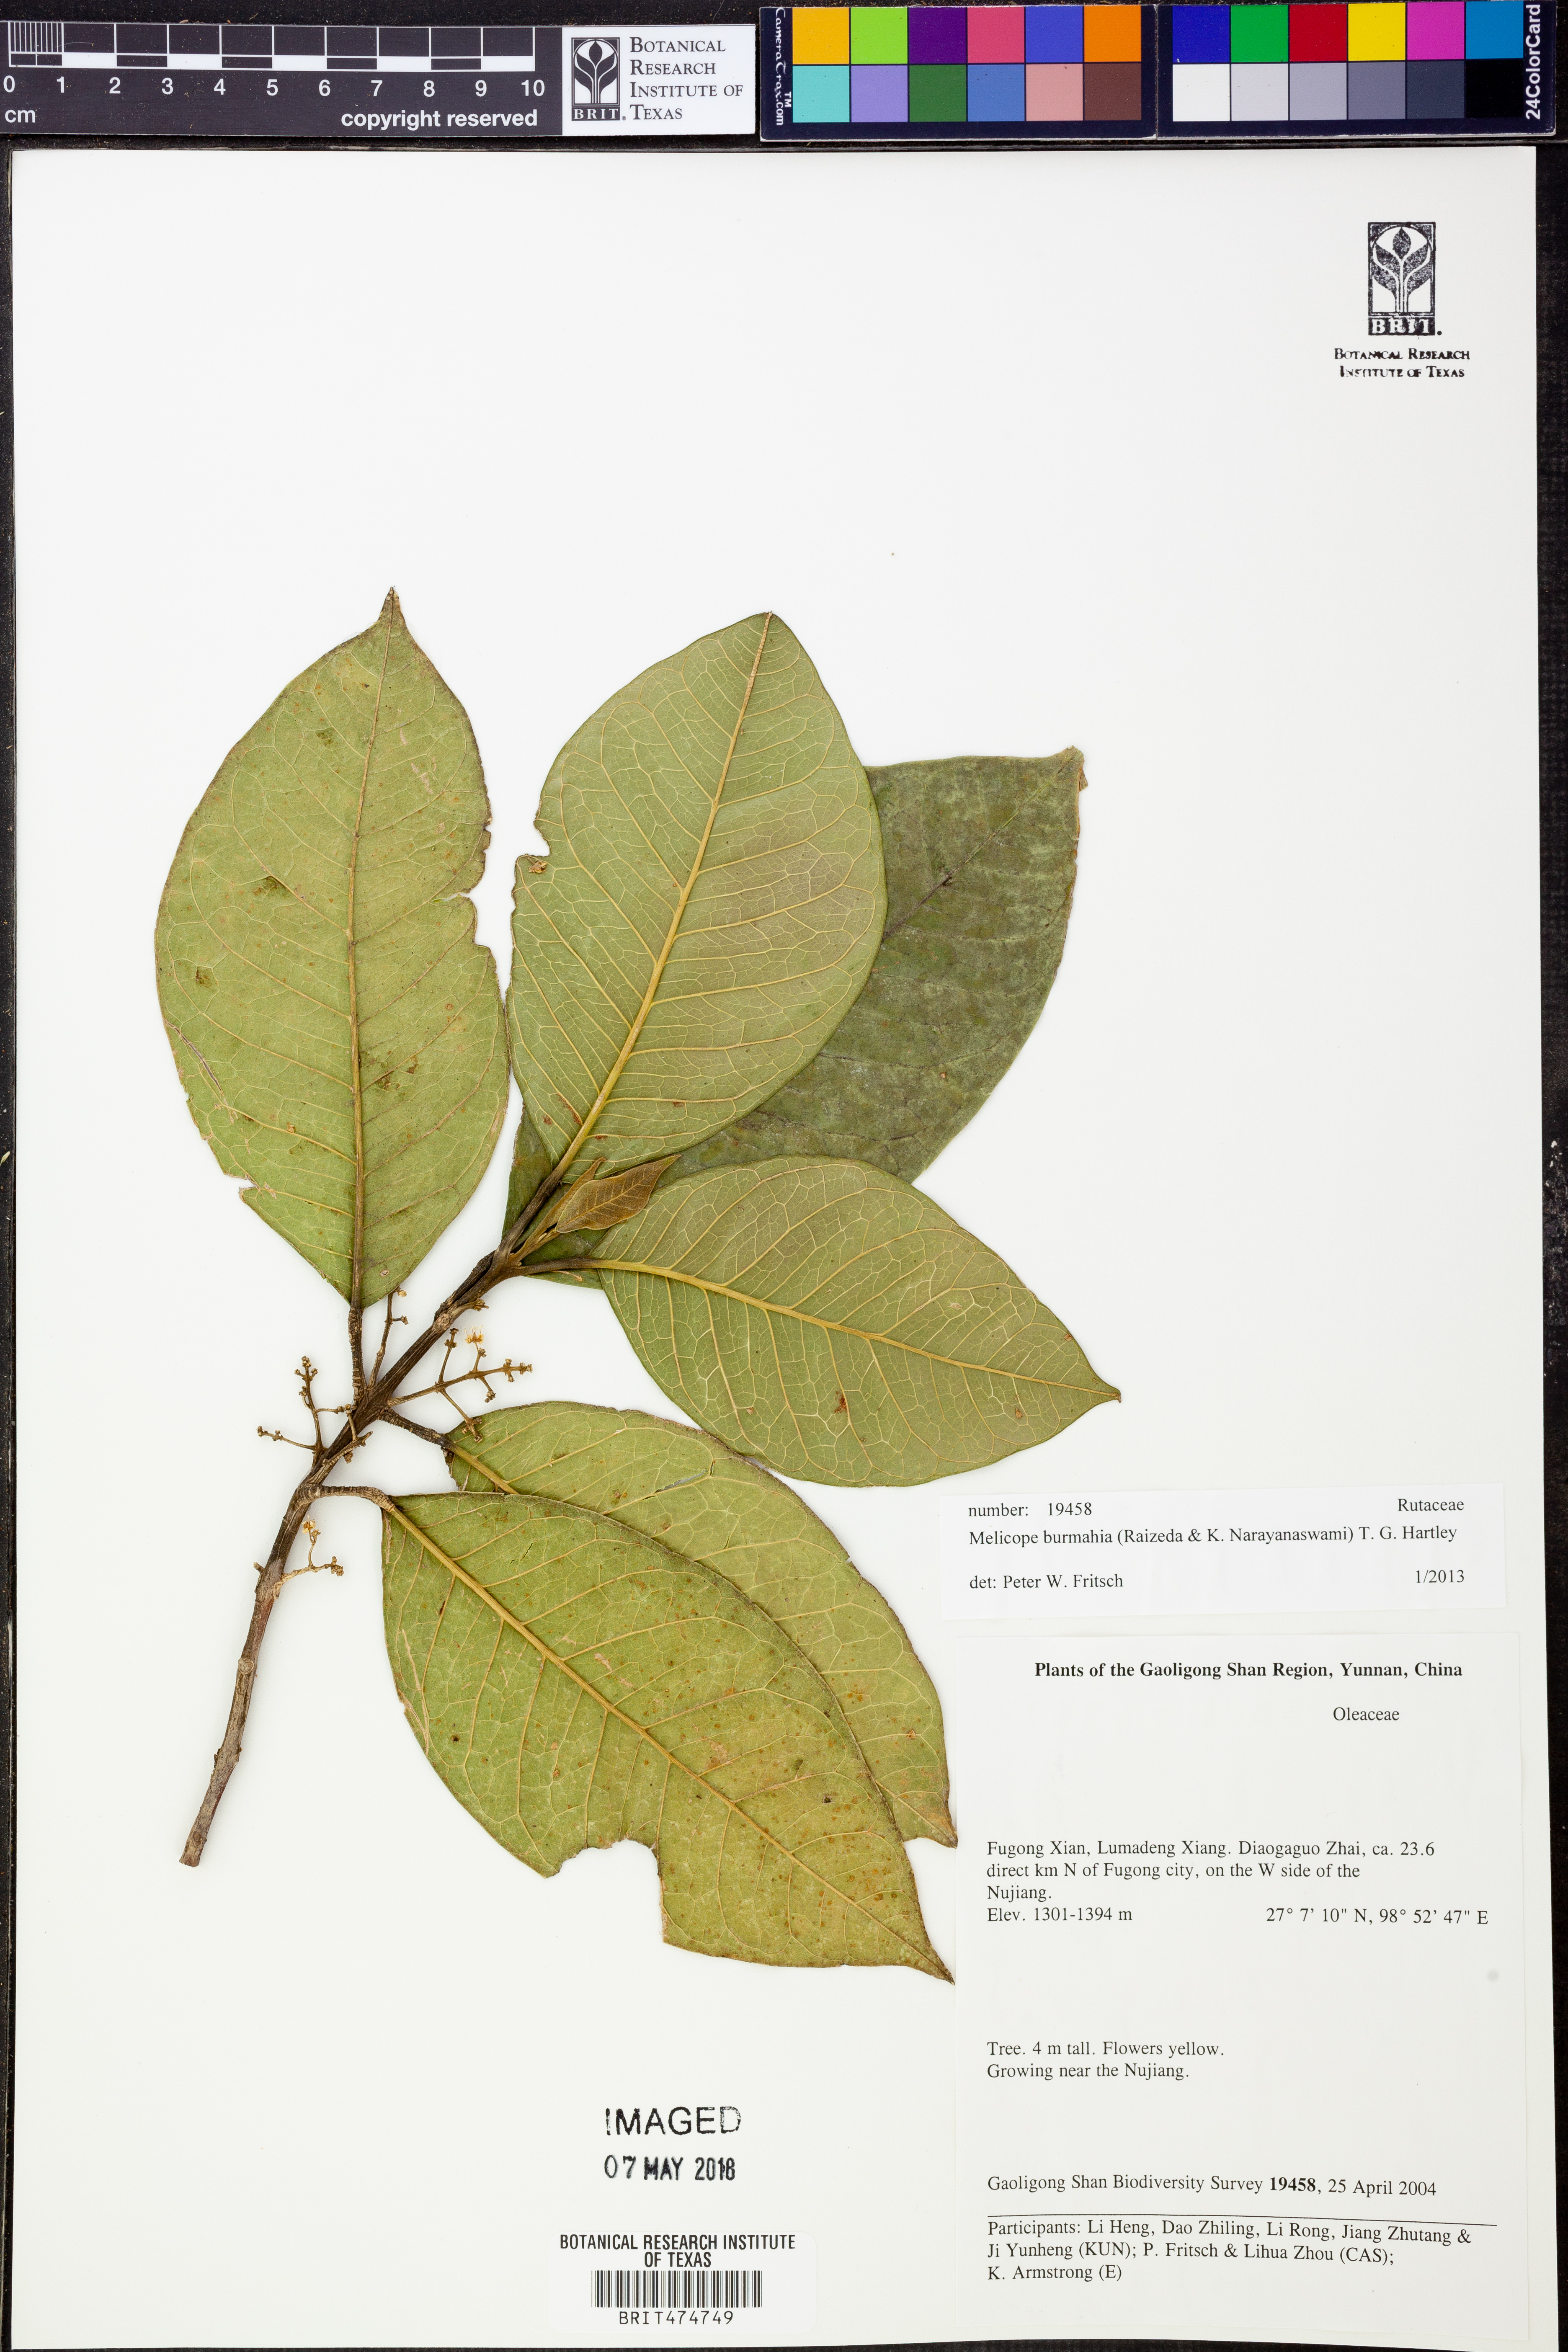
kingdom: Plantae
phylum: Tracheophyta
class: Magnoliopsida
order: Sapindales
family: Rutaceae
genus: Melicope
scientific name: Melicope burmahia
